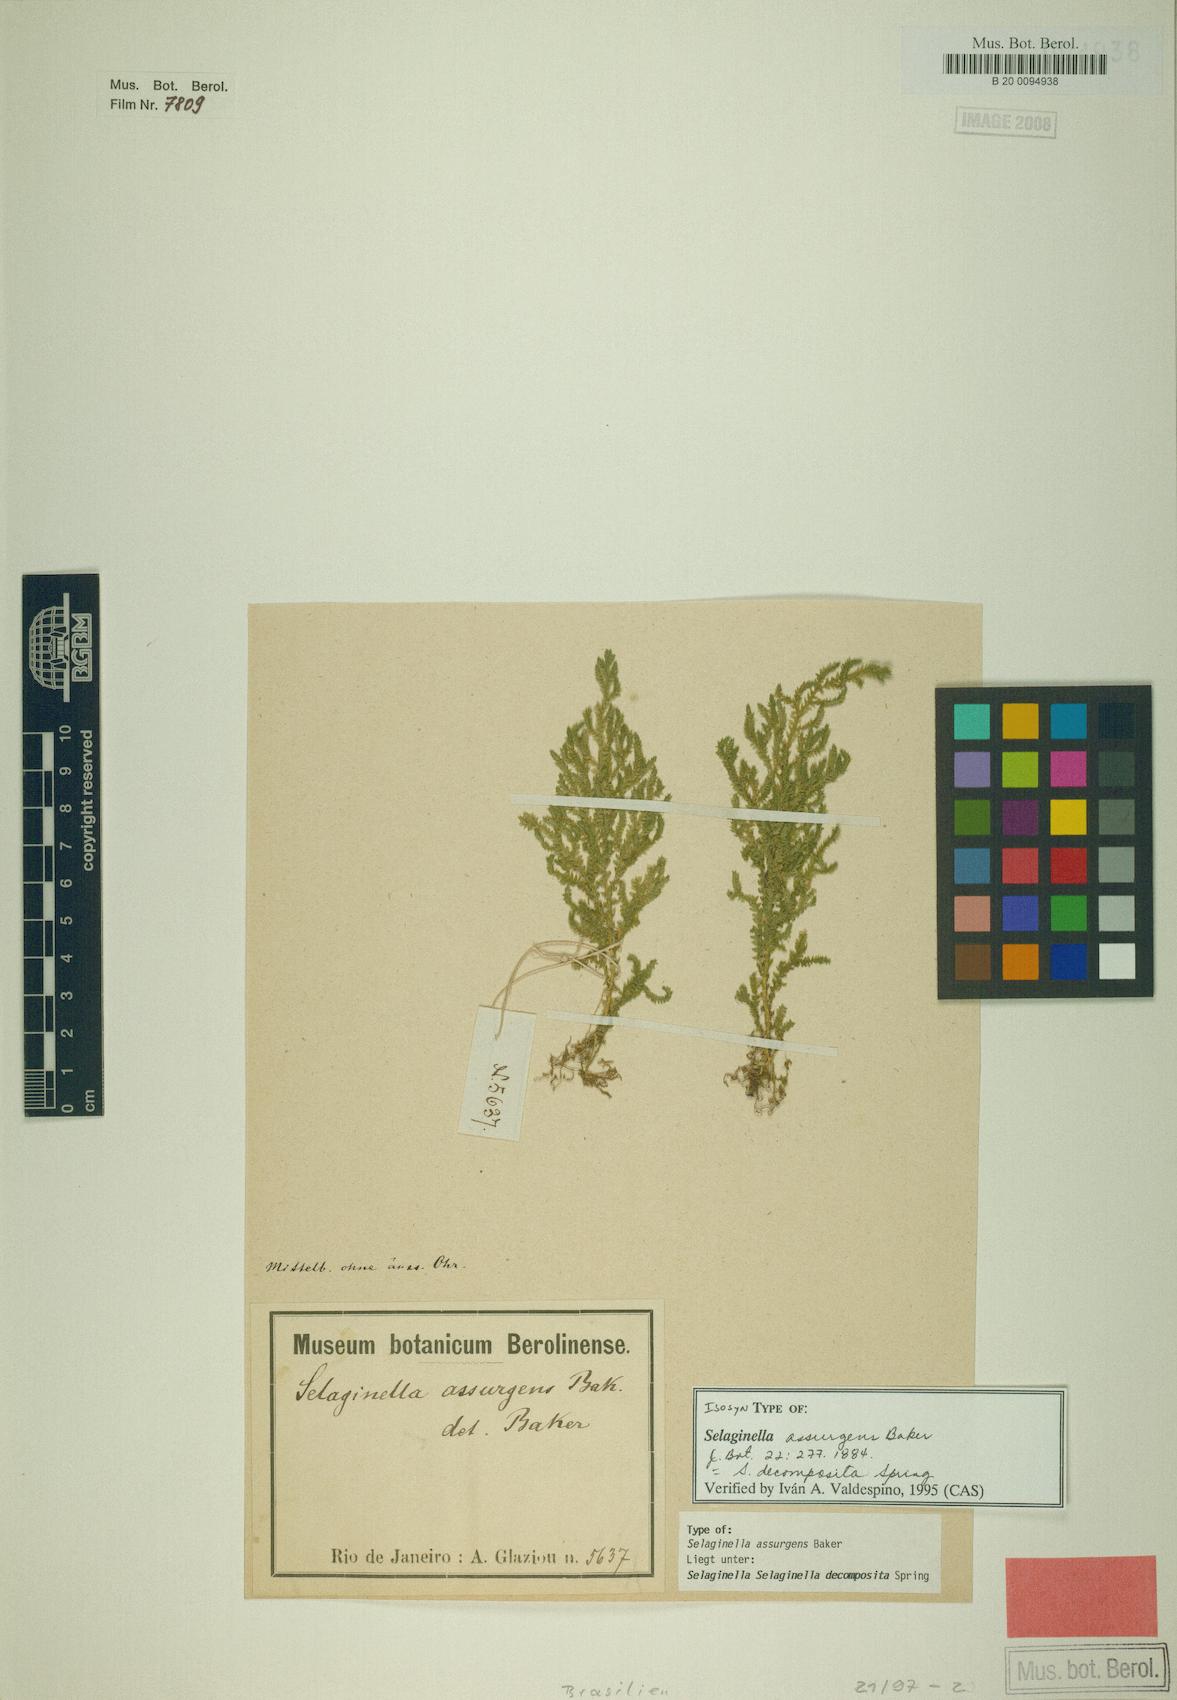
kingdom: Plantae
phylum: Tracheophyta
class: Lycopodiopsida
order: Selaginellales
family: Selaginellaceae
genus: Selaginella
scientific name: Selaginella decomposita
